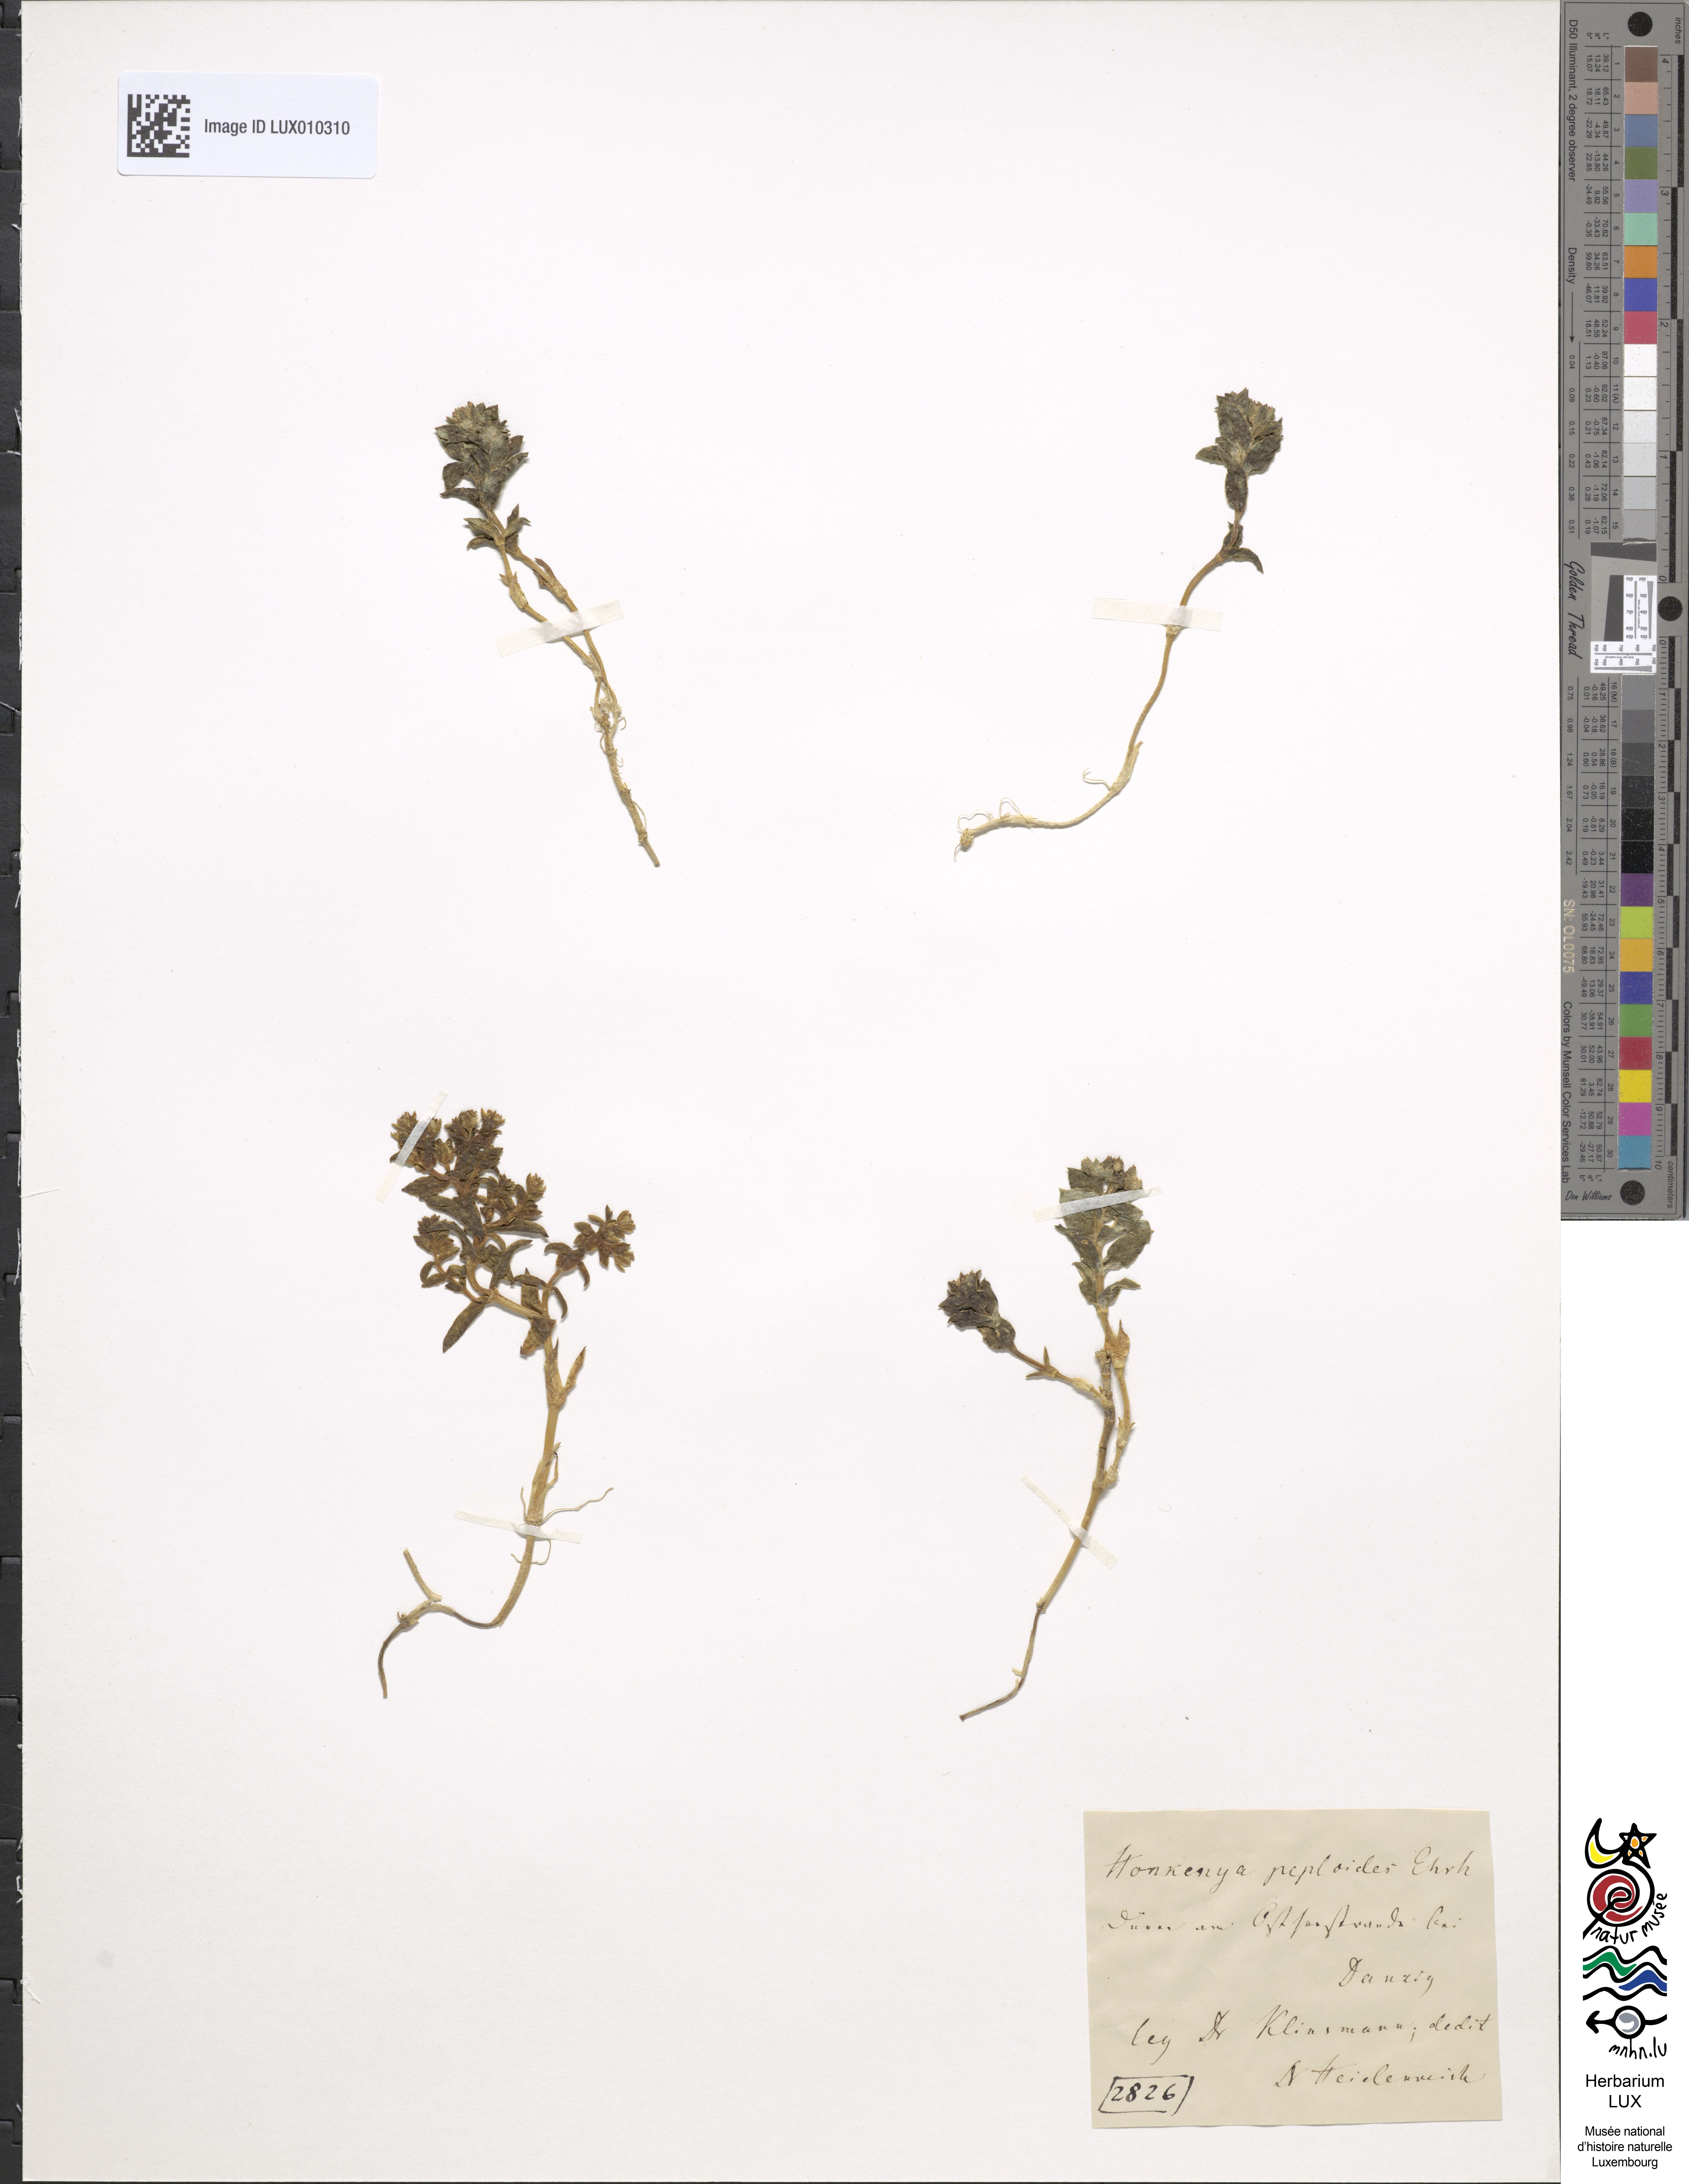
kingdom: Plantae
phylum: Tracheophyta
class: Magnoliopsida
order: Caryophyllales
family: Caryophyllaceae
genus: Honckenya
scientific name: Honckenya peploides
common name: Sea sandwort
